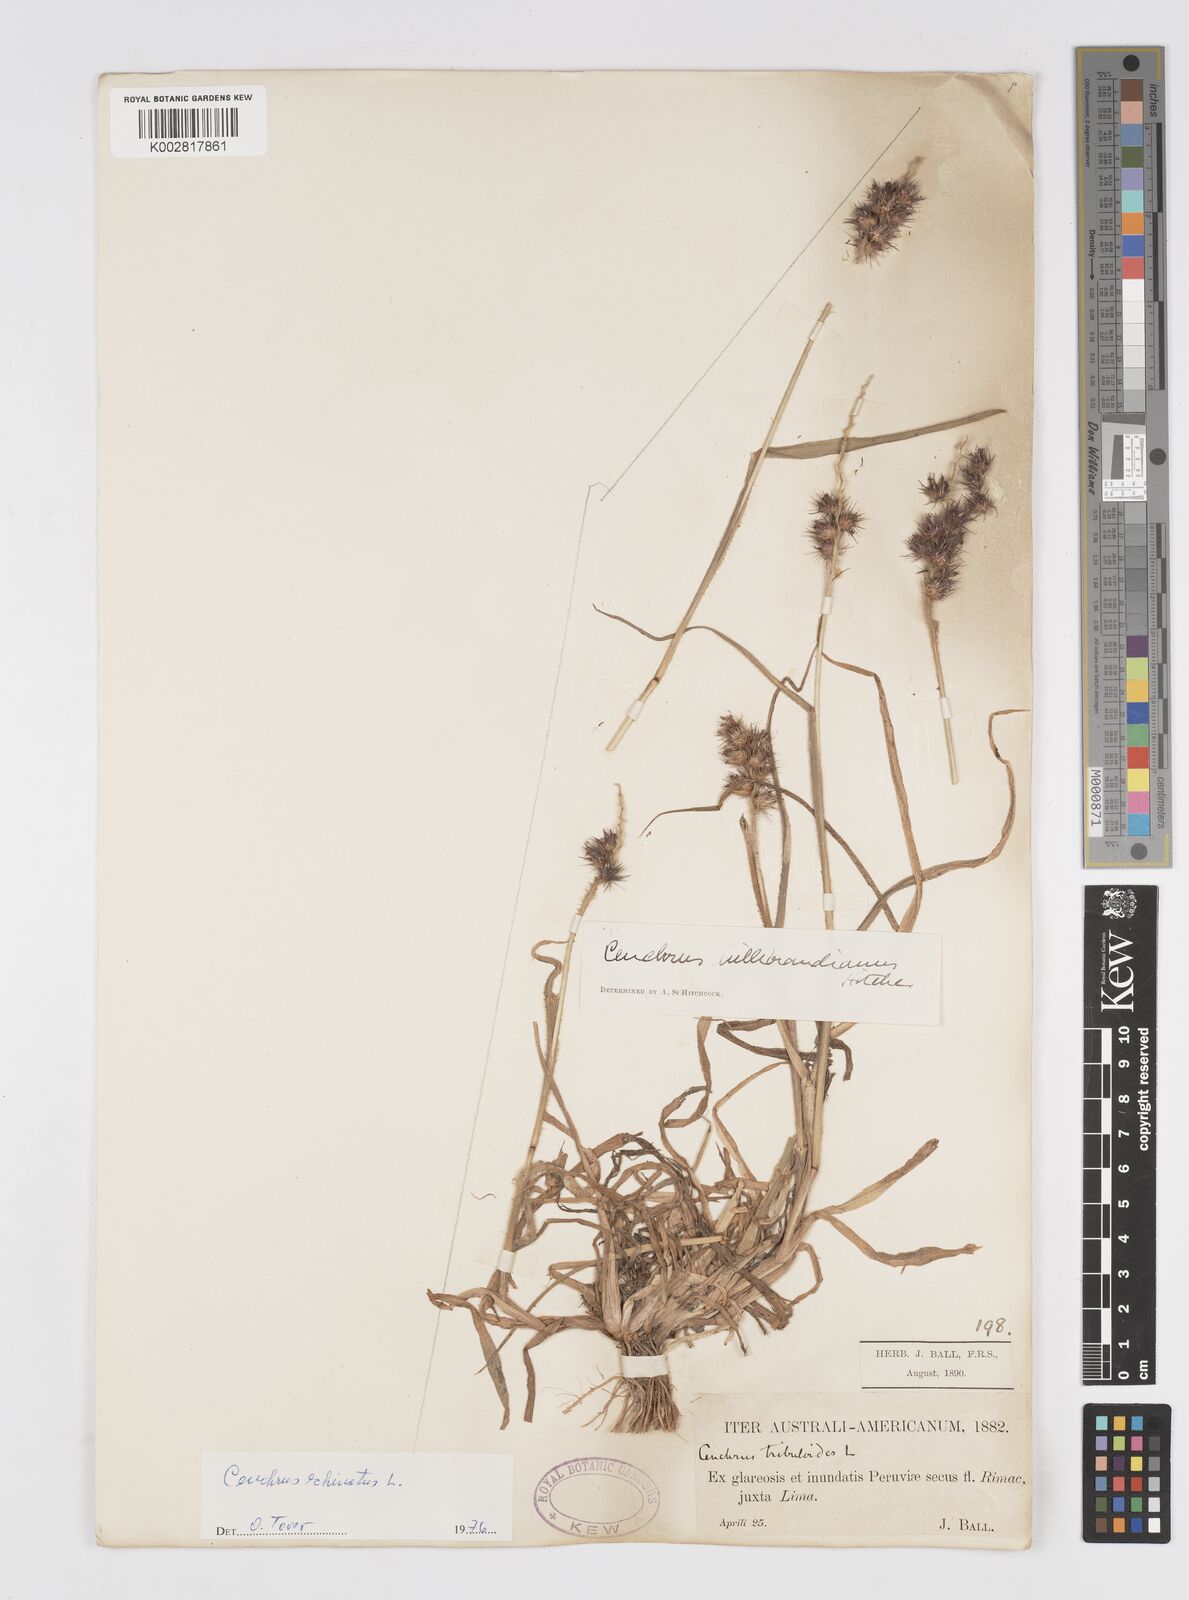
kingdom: Plantae
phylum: Tracheophyta
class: Liliopsida
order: Poales
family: Poaceae
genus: Cenchrus
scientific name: Cenchrus
